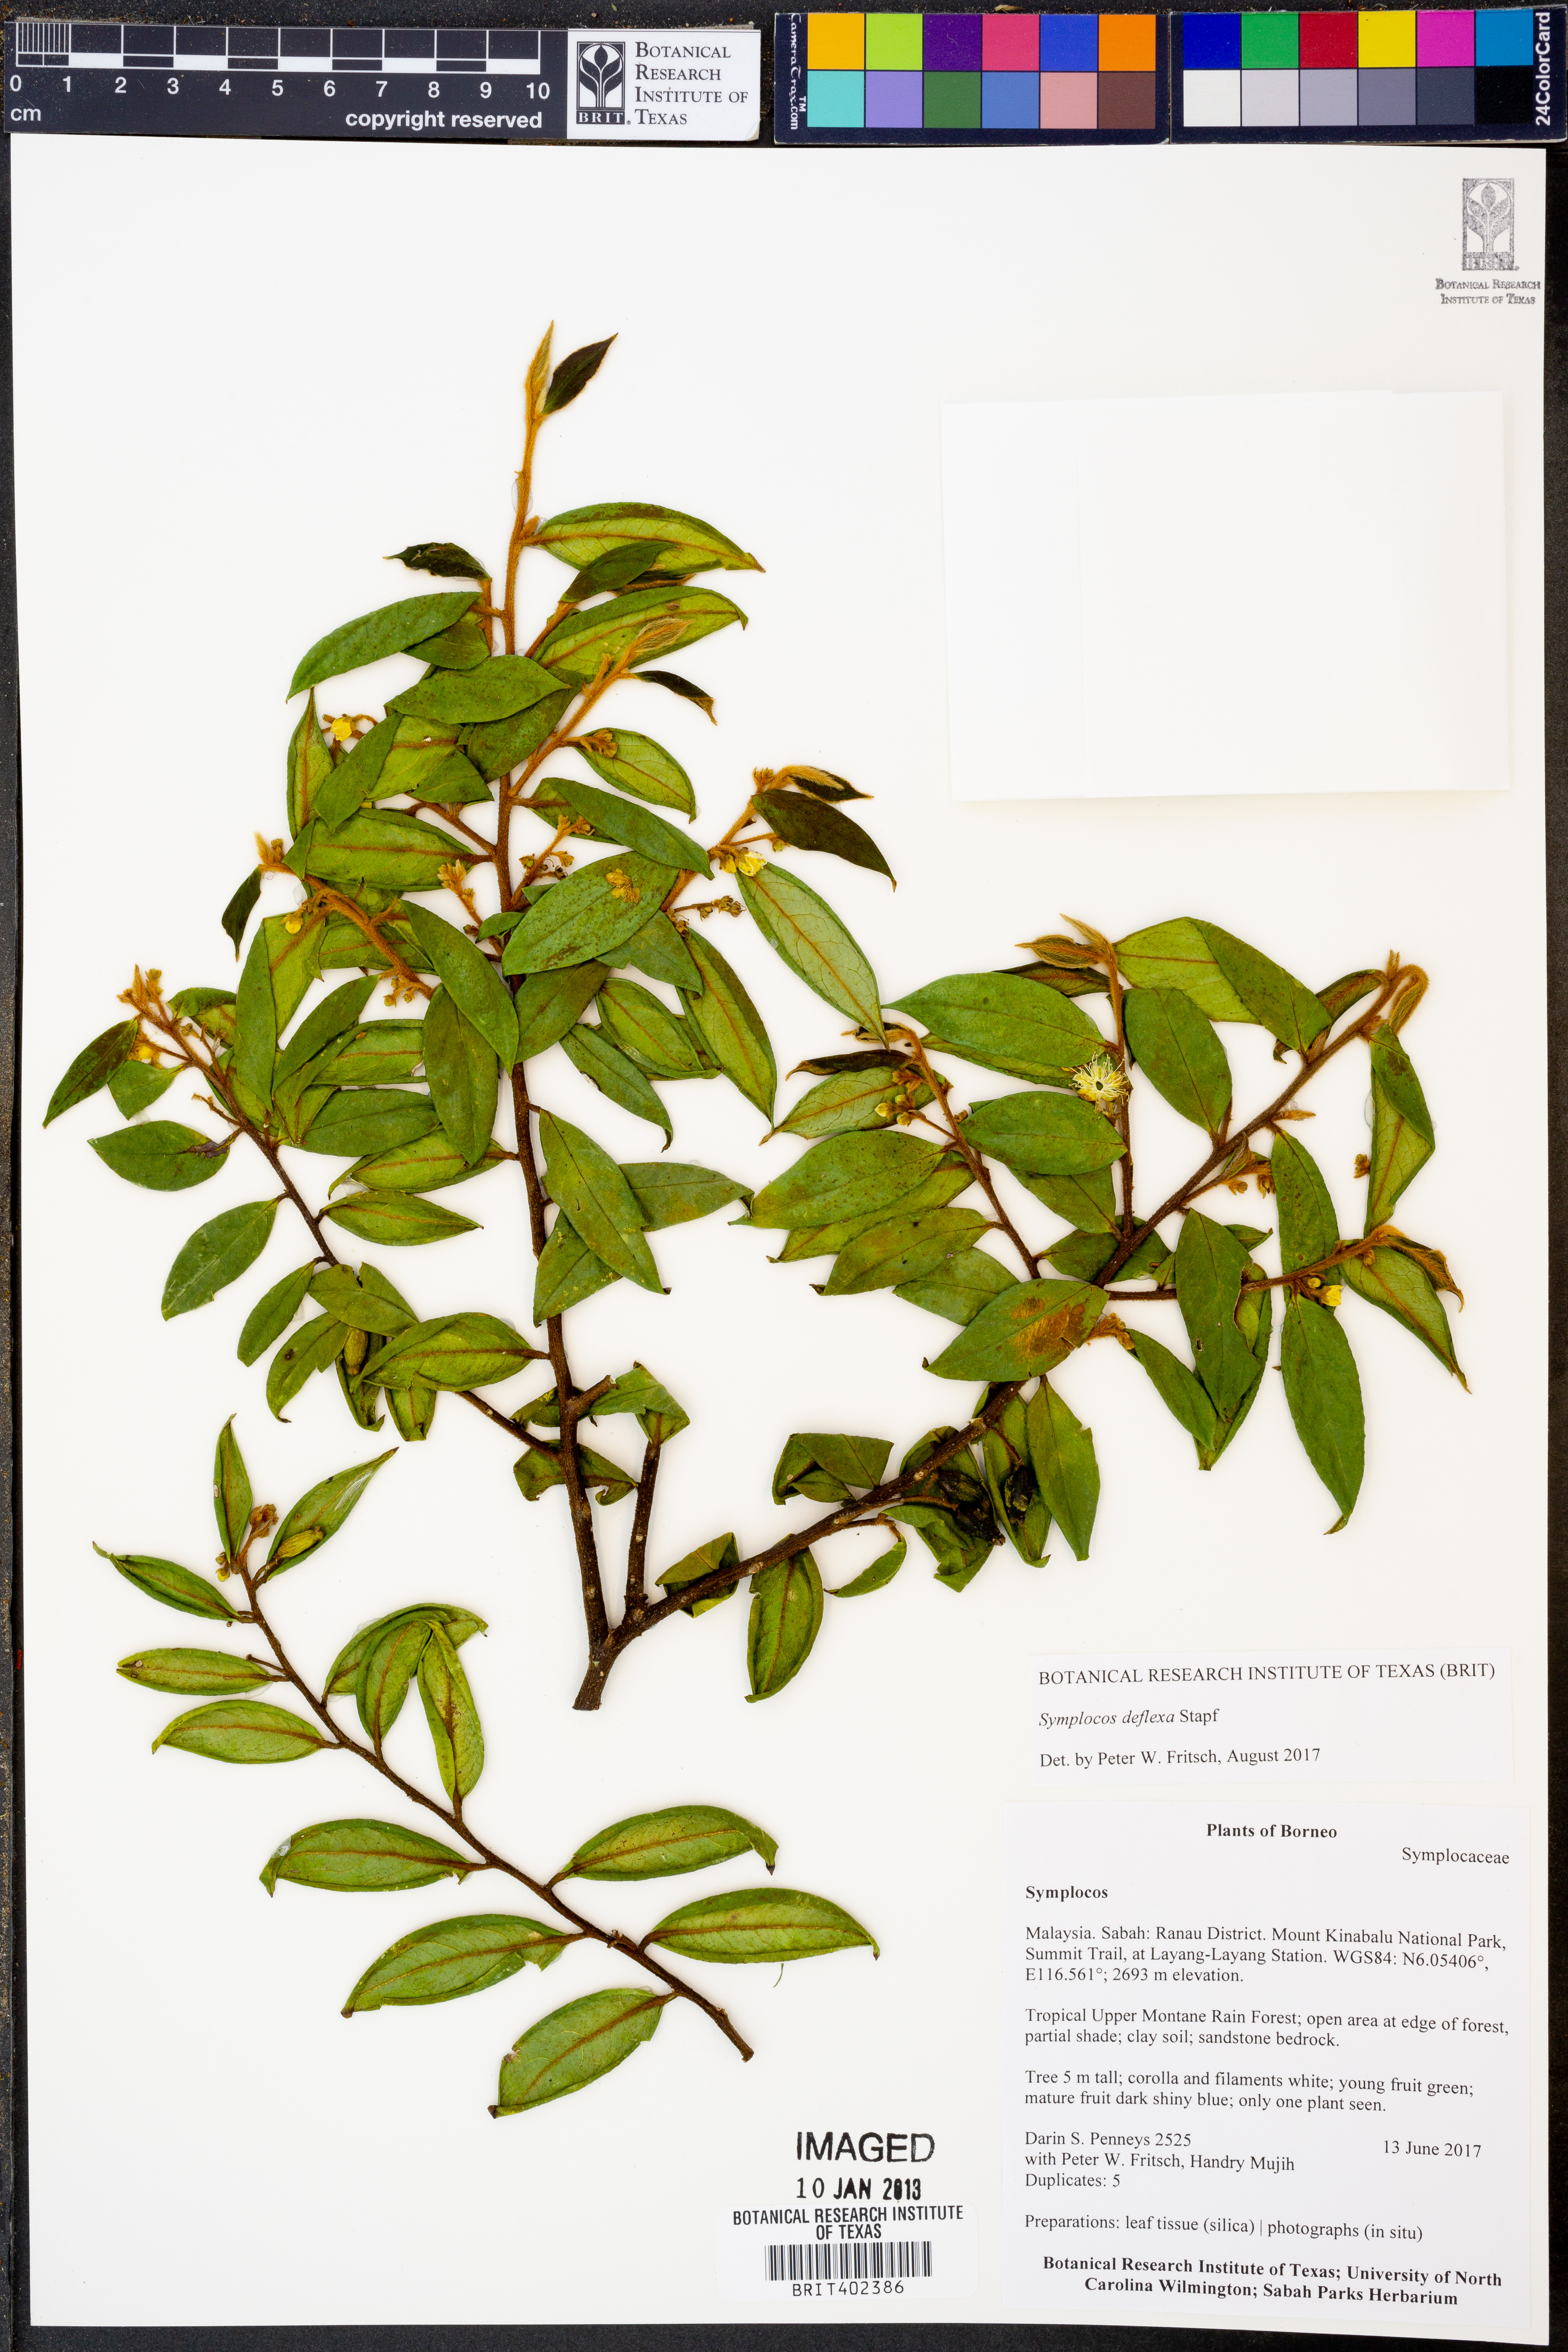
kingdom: Plantae
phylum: Tracheophyta
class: Magnoliopsida
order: Ericales
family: Symplocaceae
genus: Symplocos
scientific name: Symplocos deflexa
